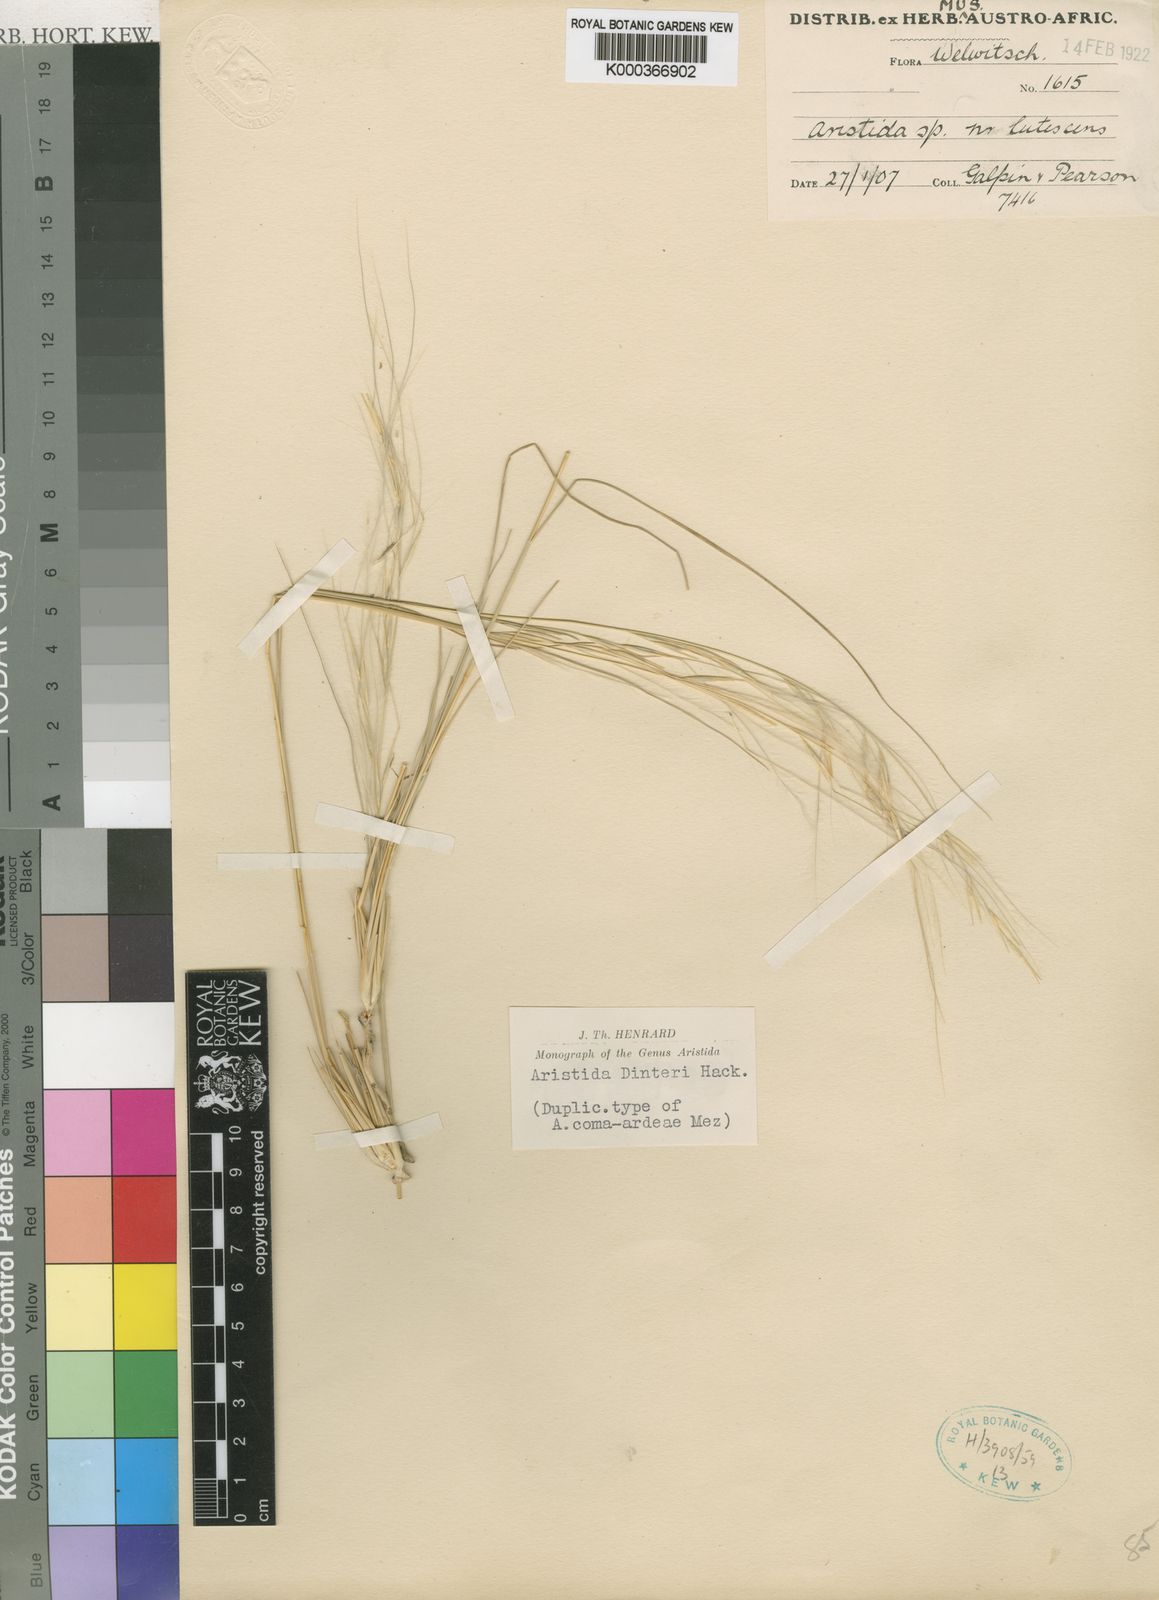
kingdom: Plantae
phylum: Tracheophyta
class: Liliopsida
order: Poales
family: Poaceae
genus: Stipagrostis
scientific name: Stipagrostis dinteri
